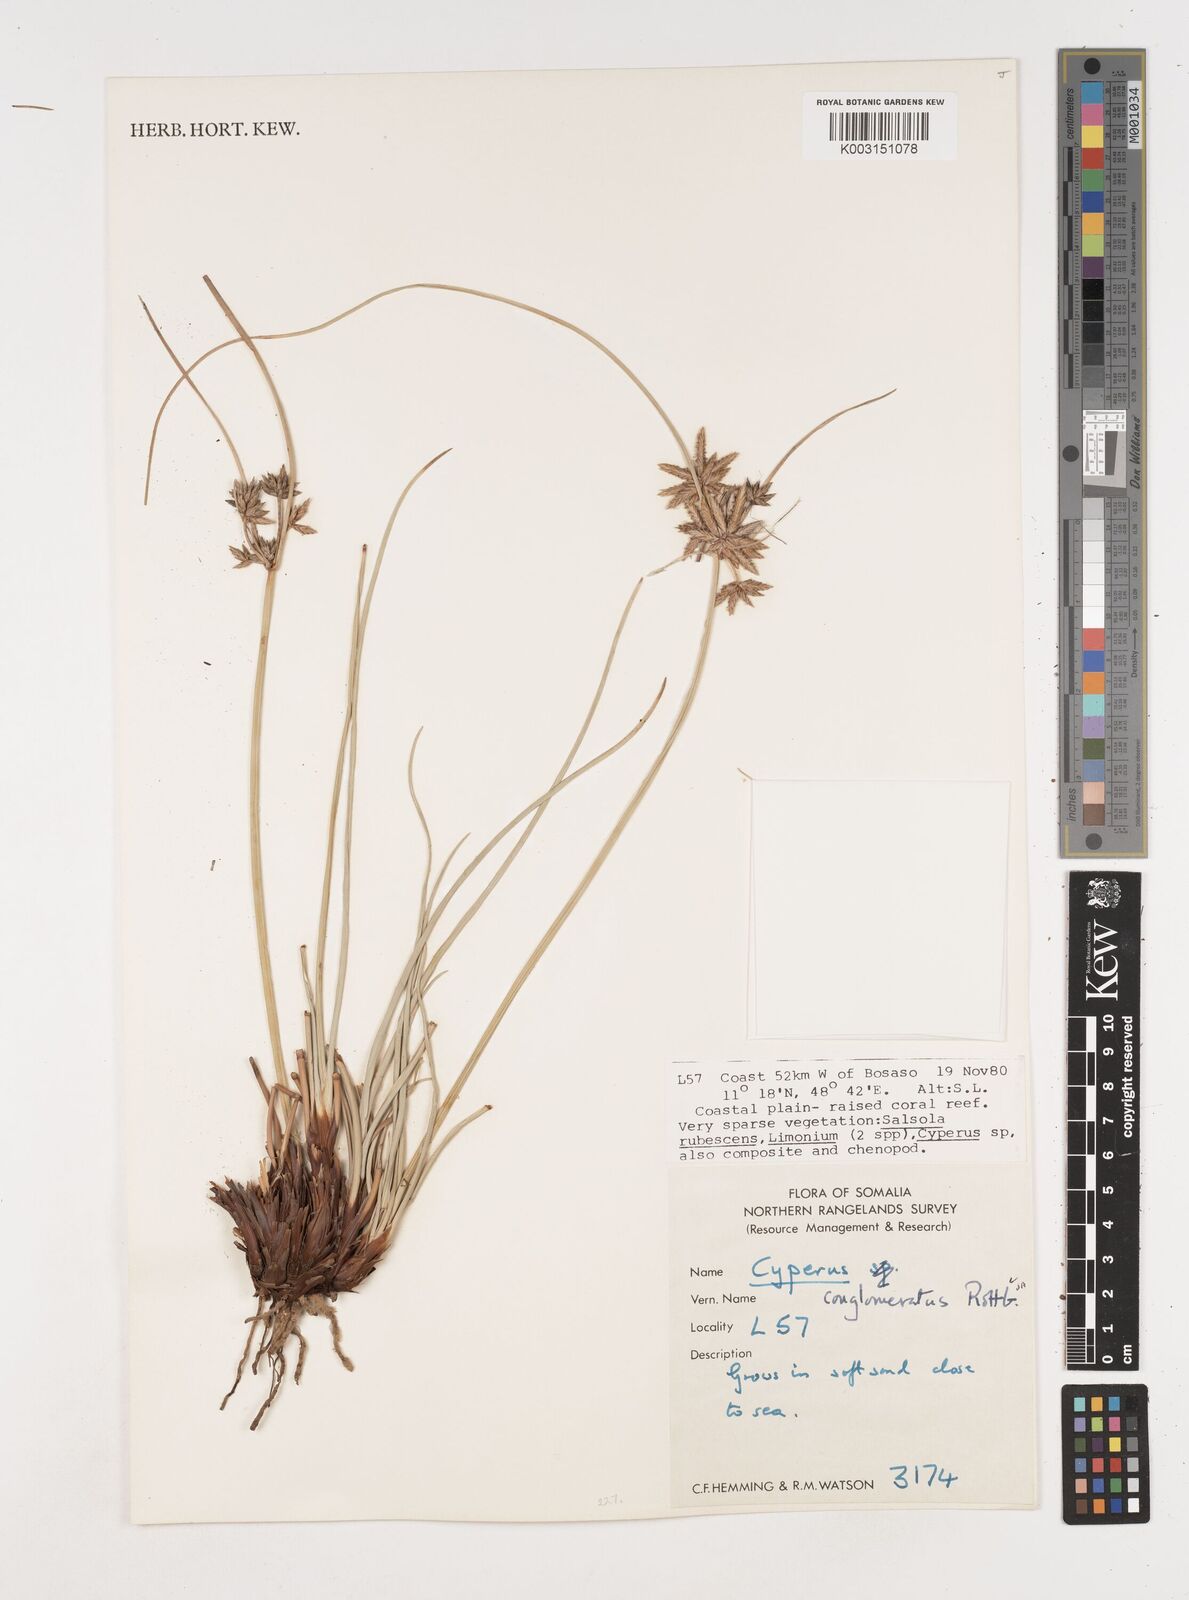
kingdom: Plantae
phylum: Tracheophyta
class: Liliopsida
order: Poales
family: Cyperaceae
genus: Cyperus
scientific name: Cyperus jeminicus
